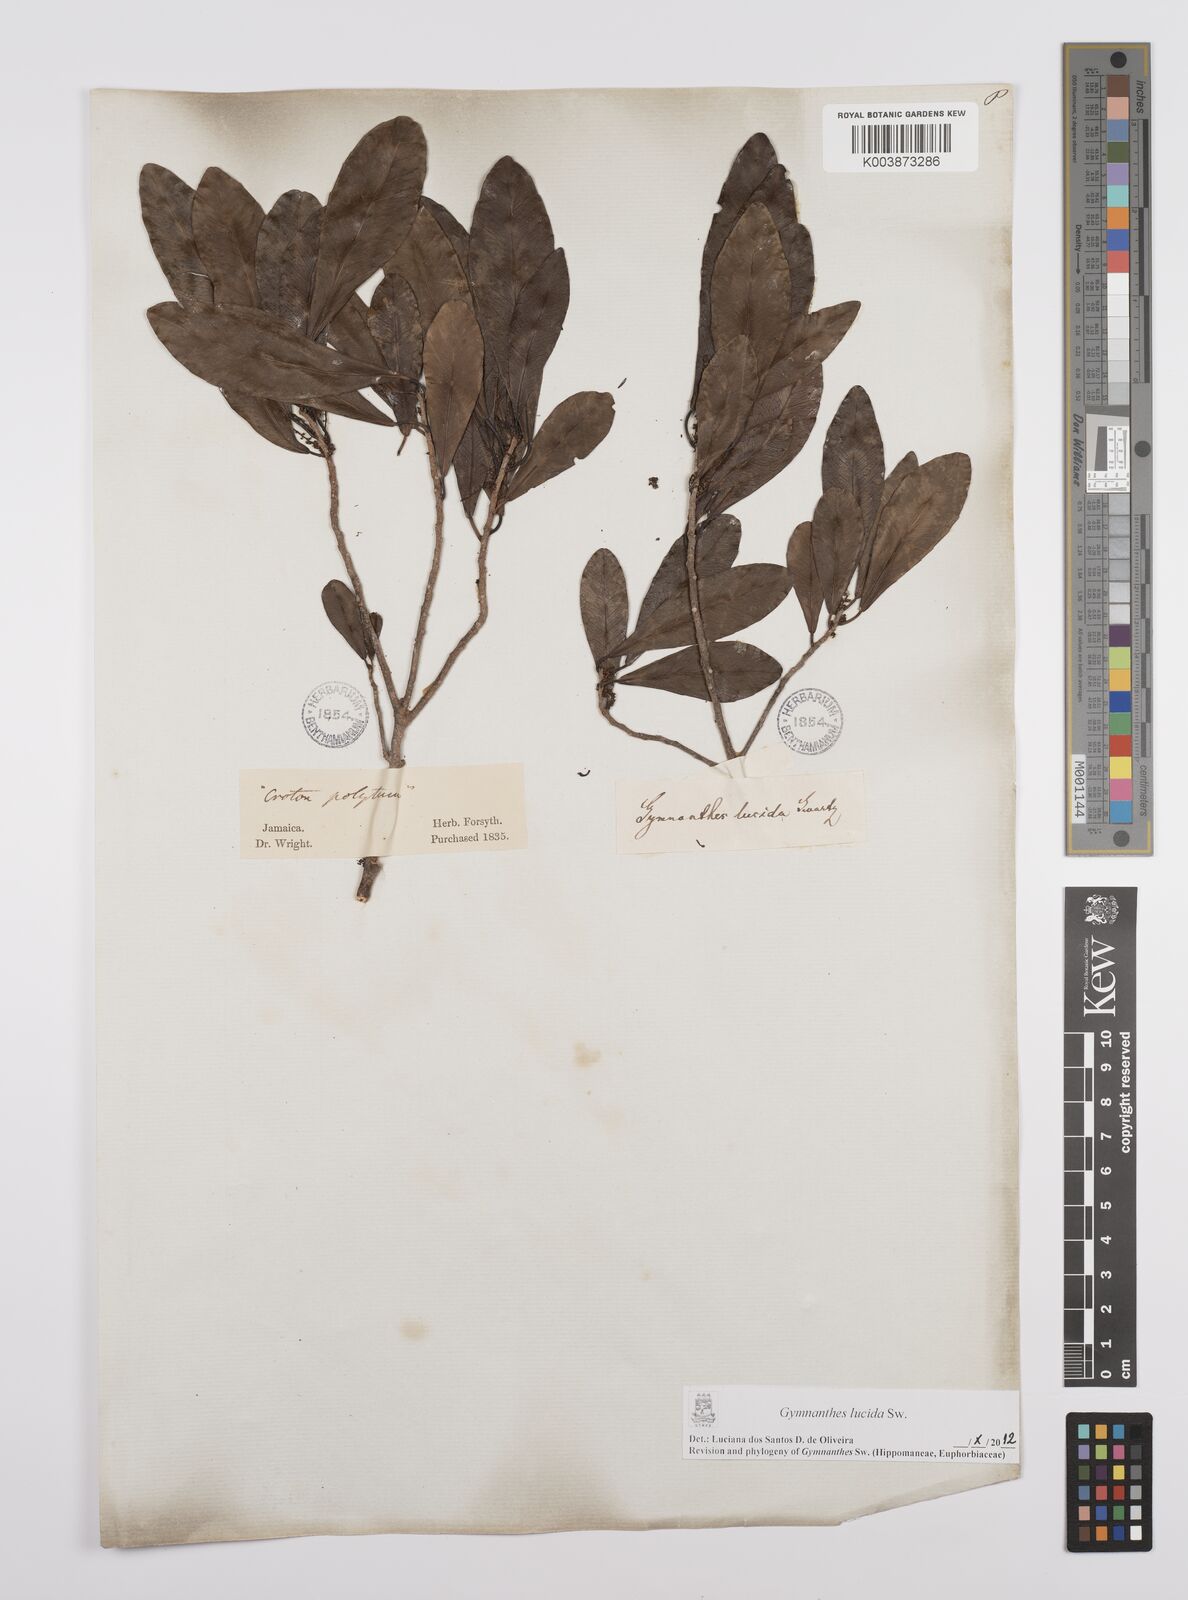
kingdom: Plantae
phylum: Tracheophyta
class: Magnoliopsida
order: Malpighiales
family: Euphorbiaceae
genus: Gymnanthes
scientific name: Gymnanthes lucida
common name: Oysterwood
